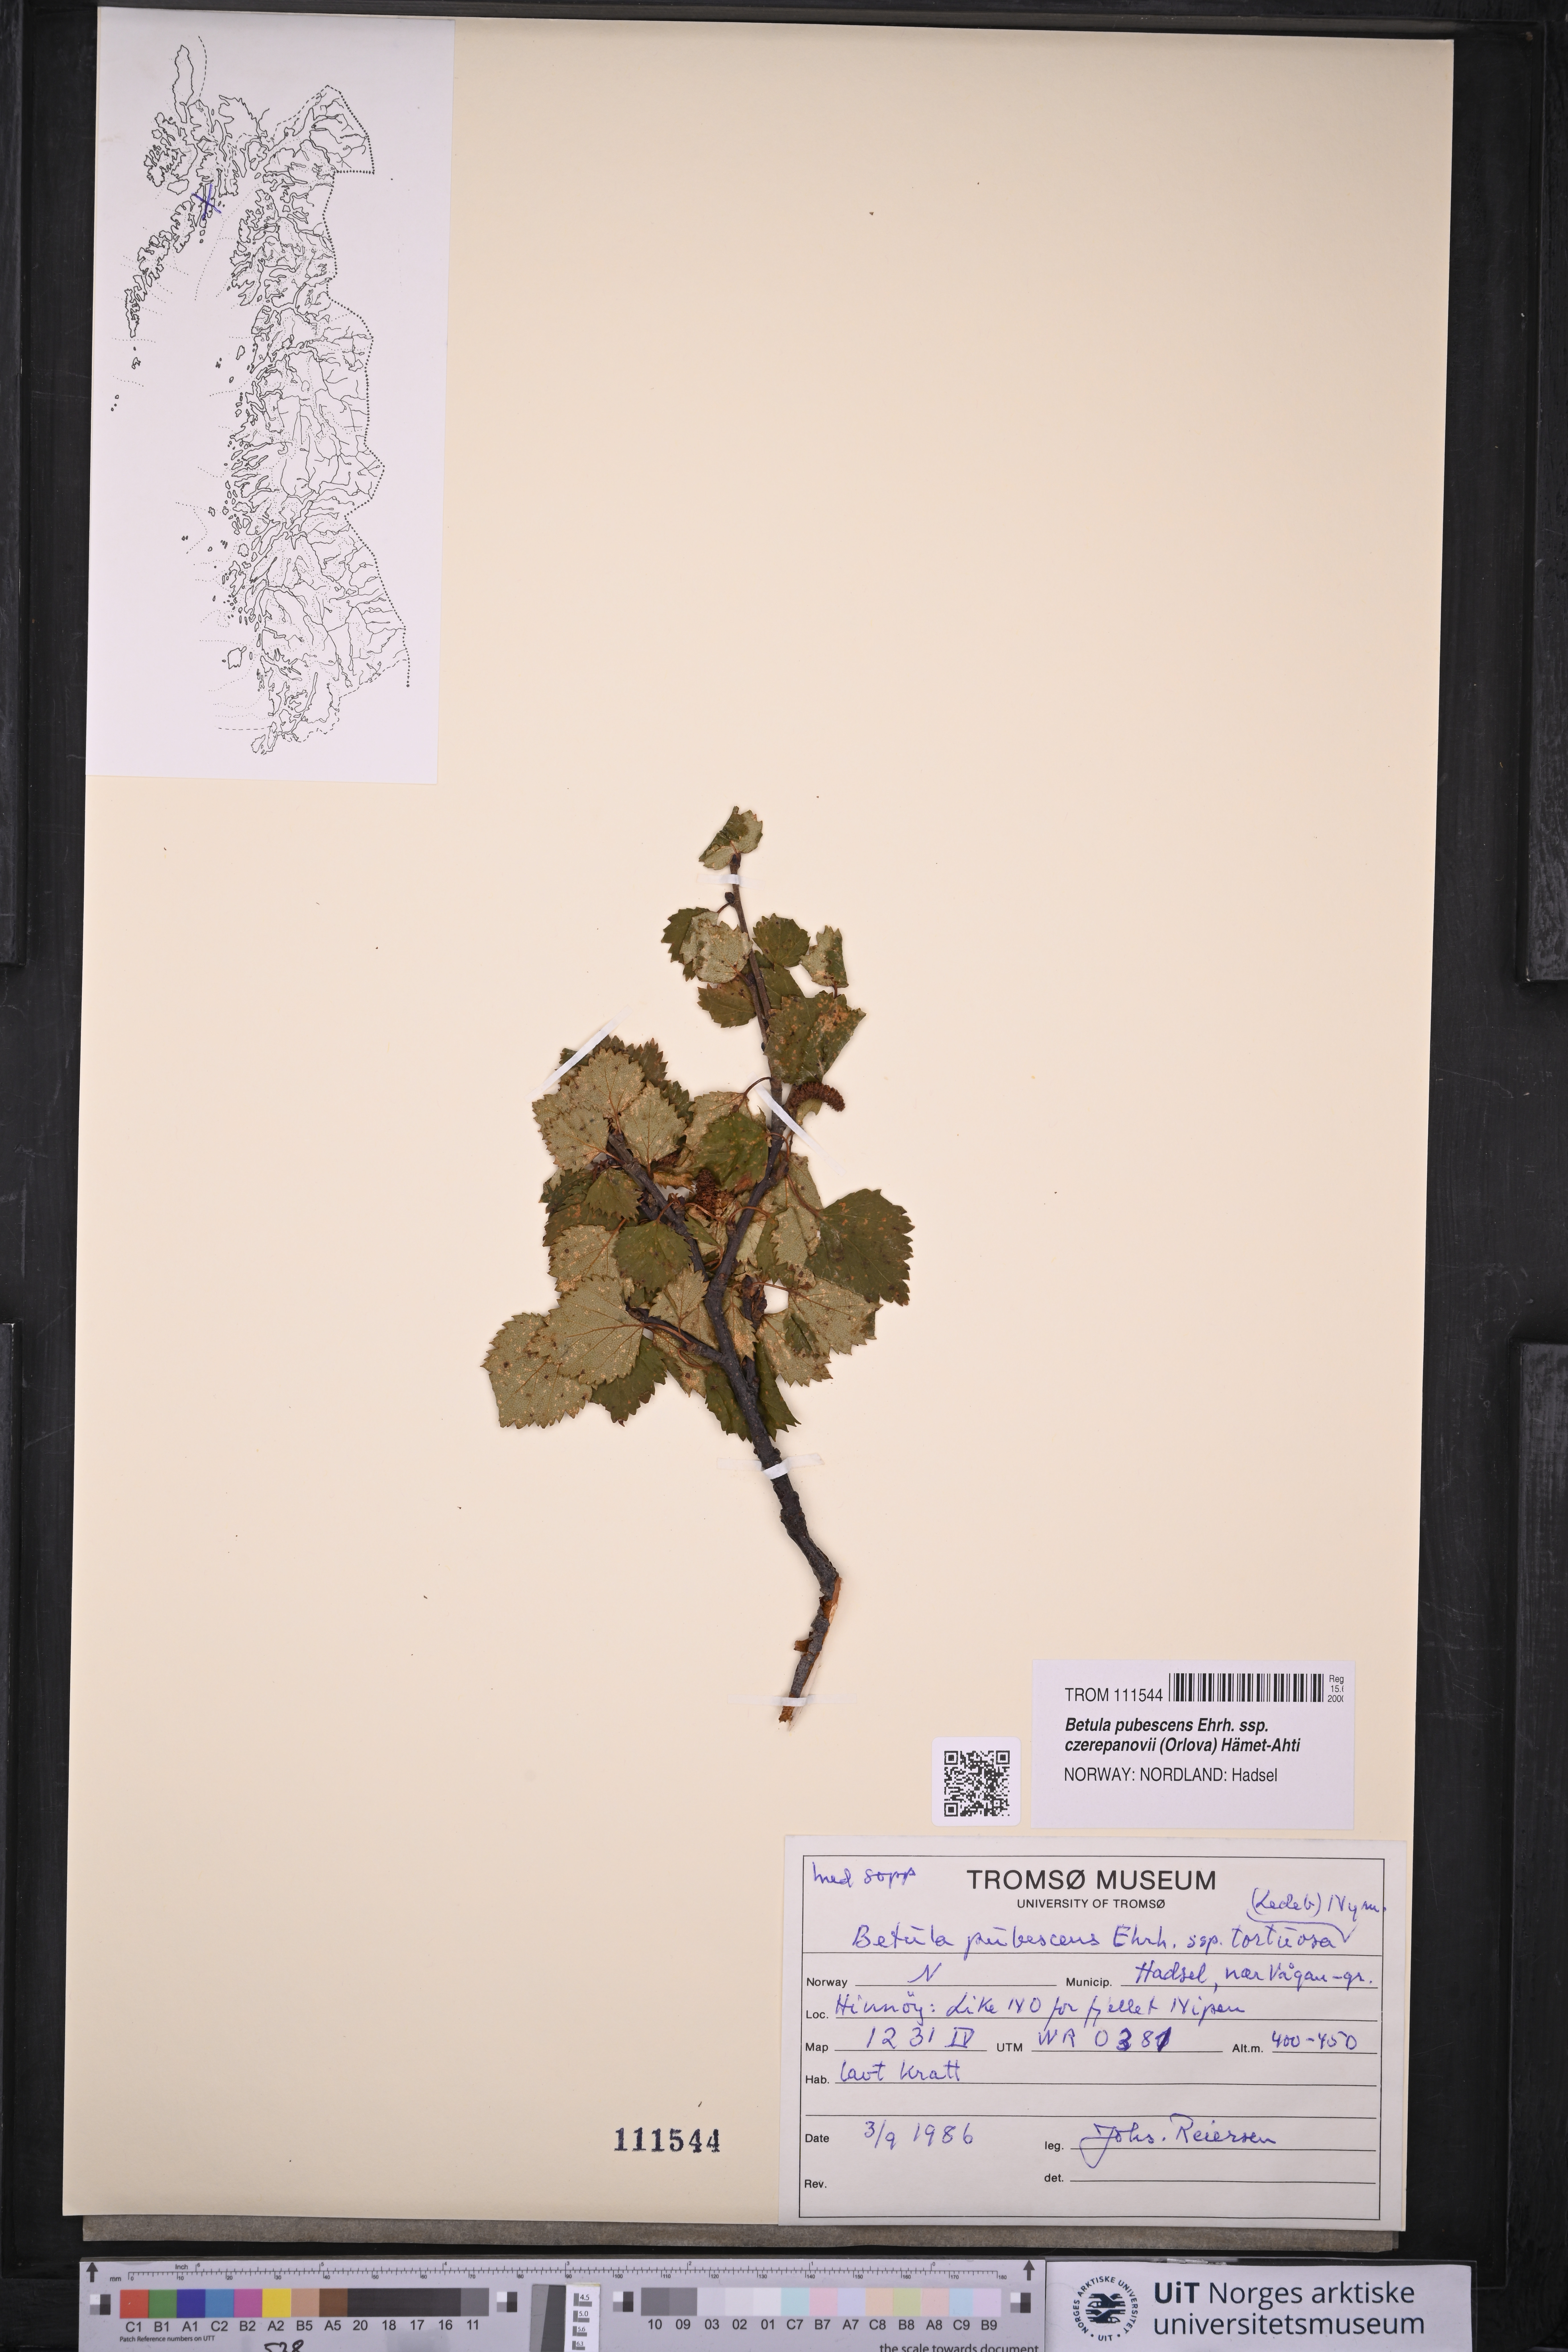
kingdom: Plantae
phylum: Tracheophyta
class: Magnoliopsida
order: Fagales
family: Betulaceae
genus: Betula
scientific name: Betula pubescens
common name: Downy birch
